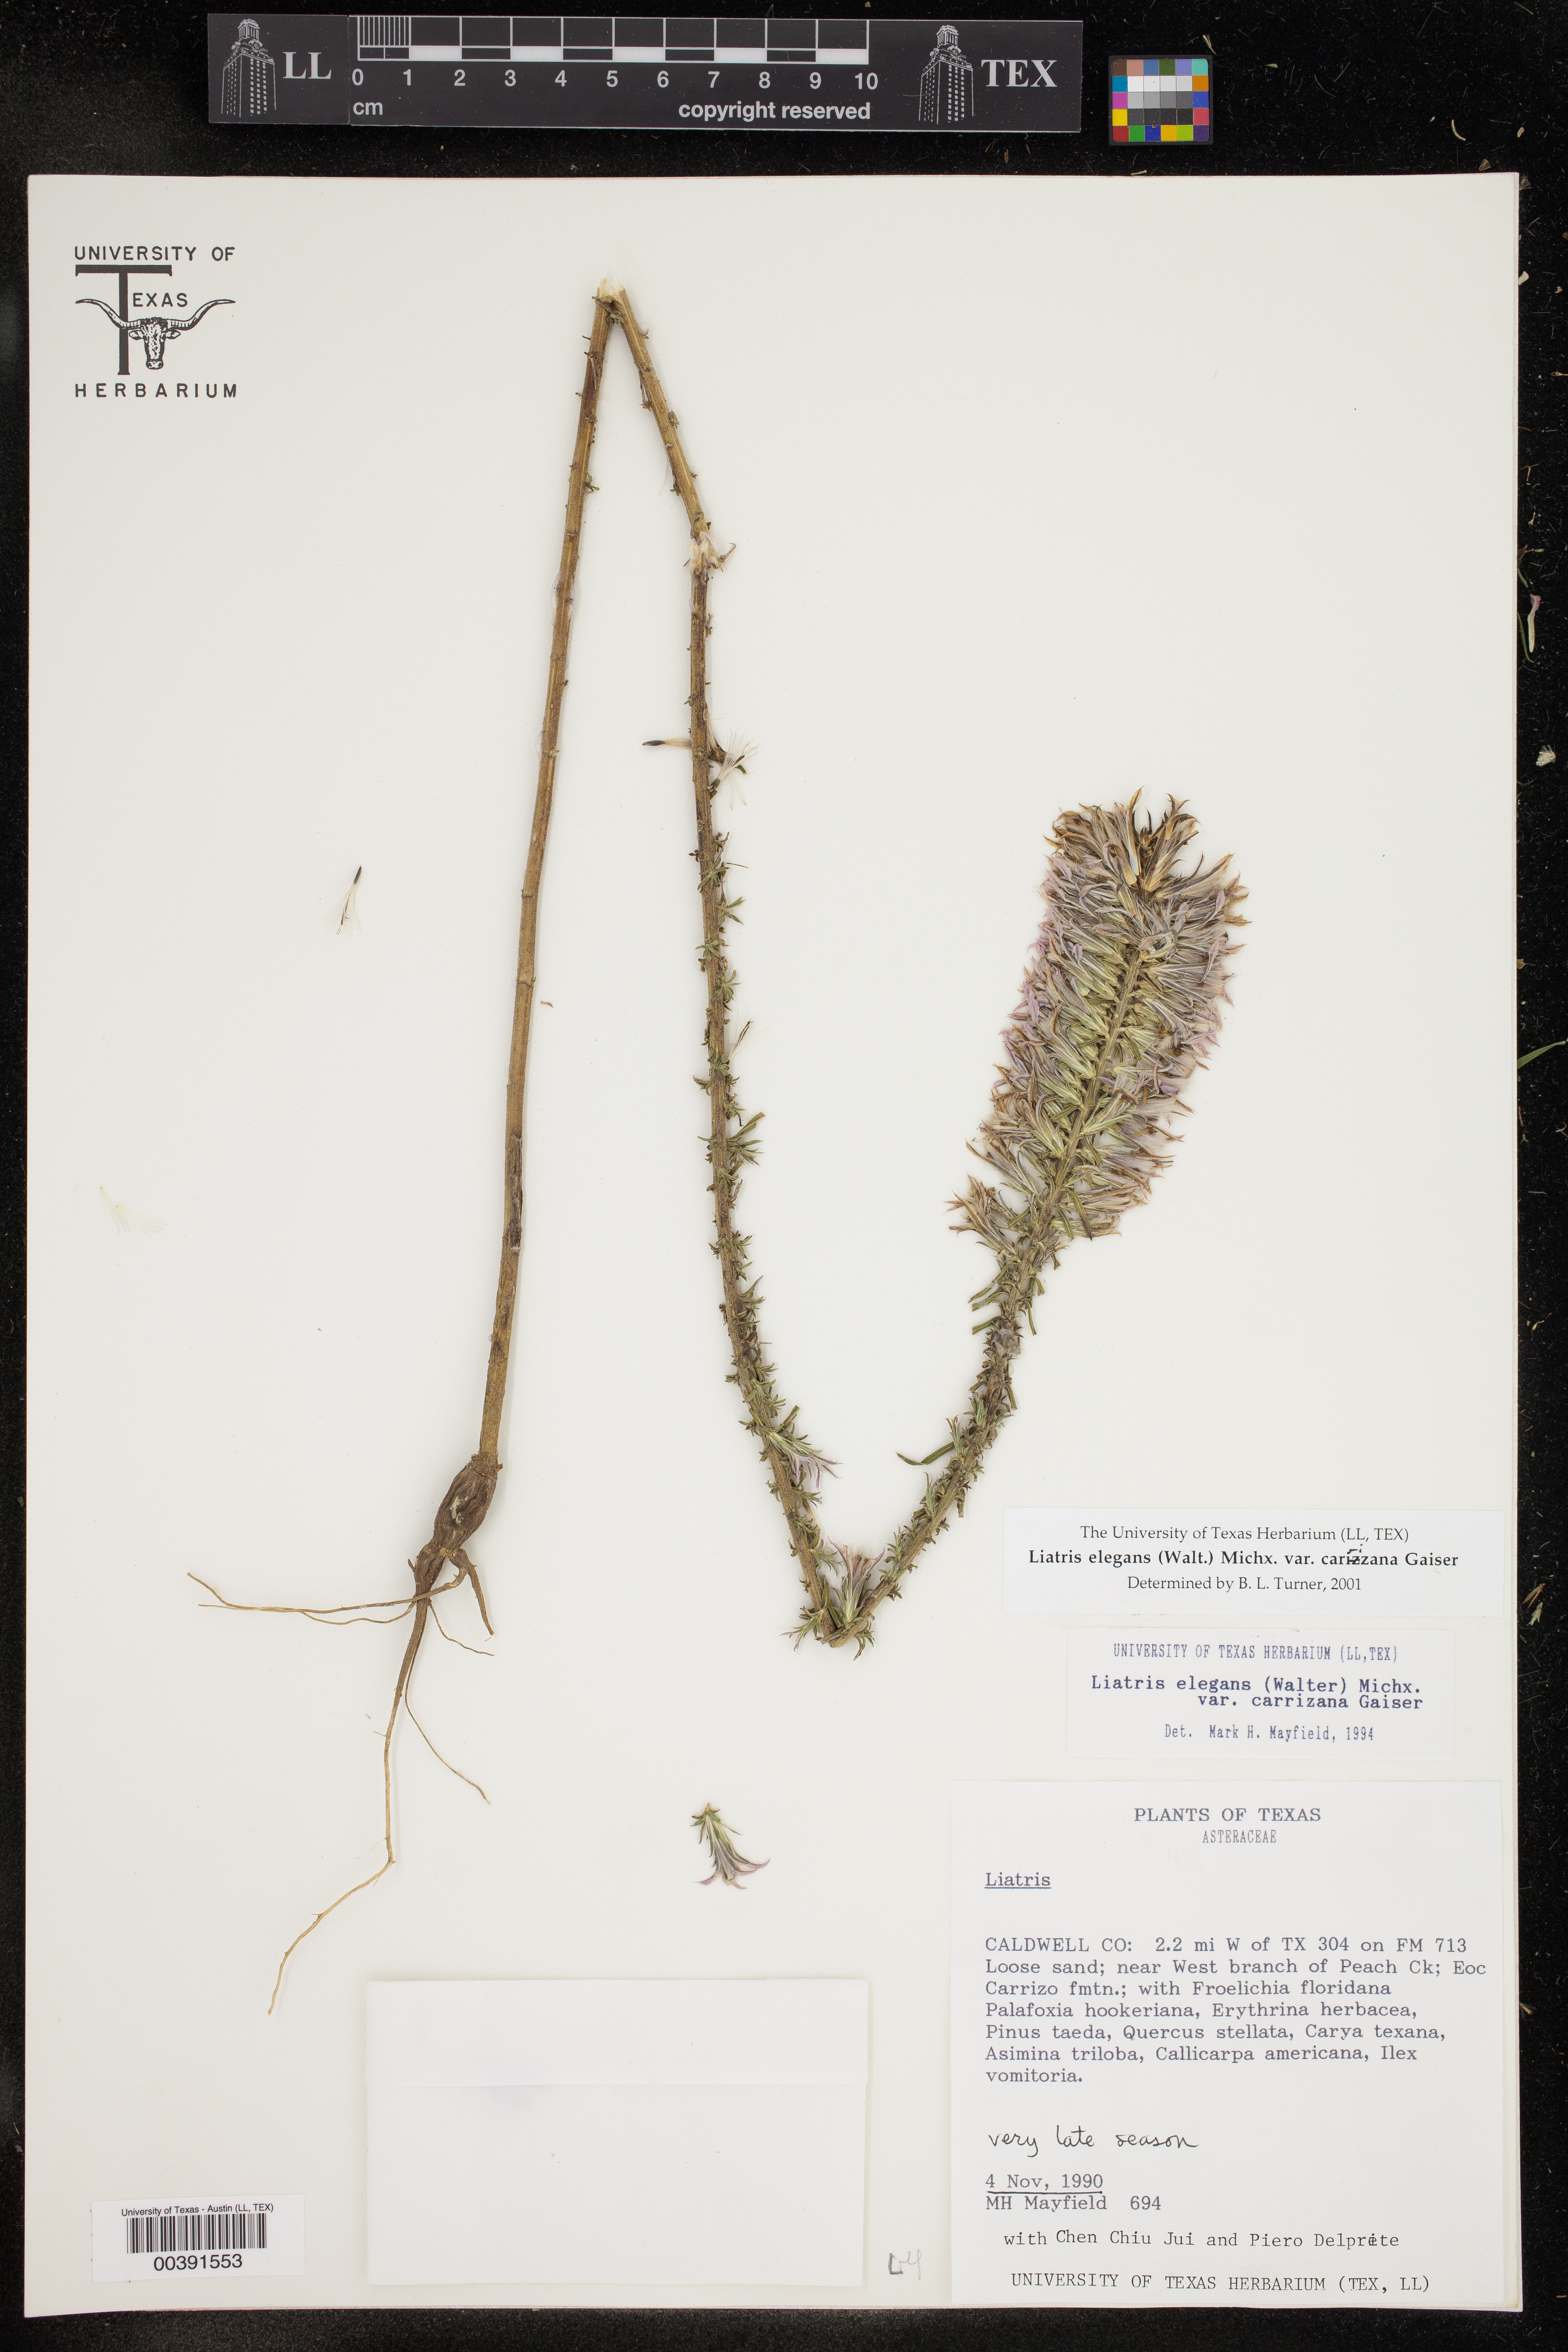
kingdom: Plantae
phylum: Tracheophyta
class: Magnoliopsida
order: Asterales
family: Asteraceae
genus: Liatris
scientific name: Liatris carizzana
